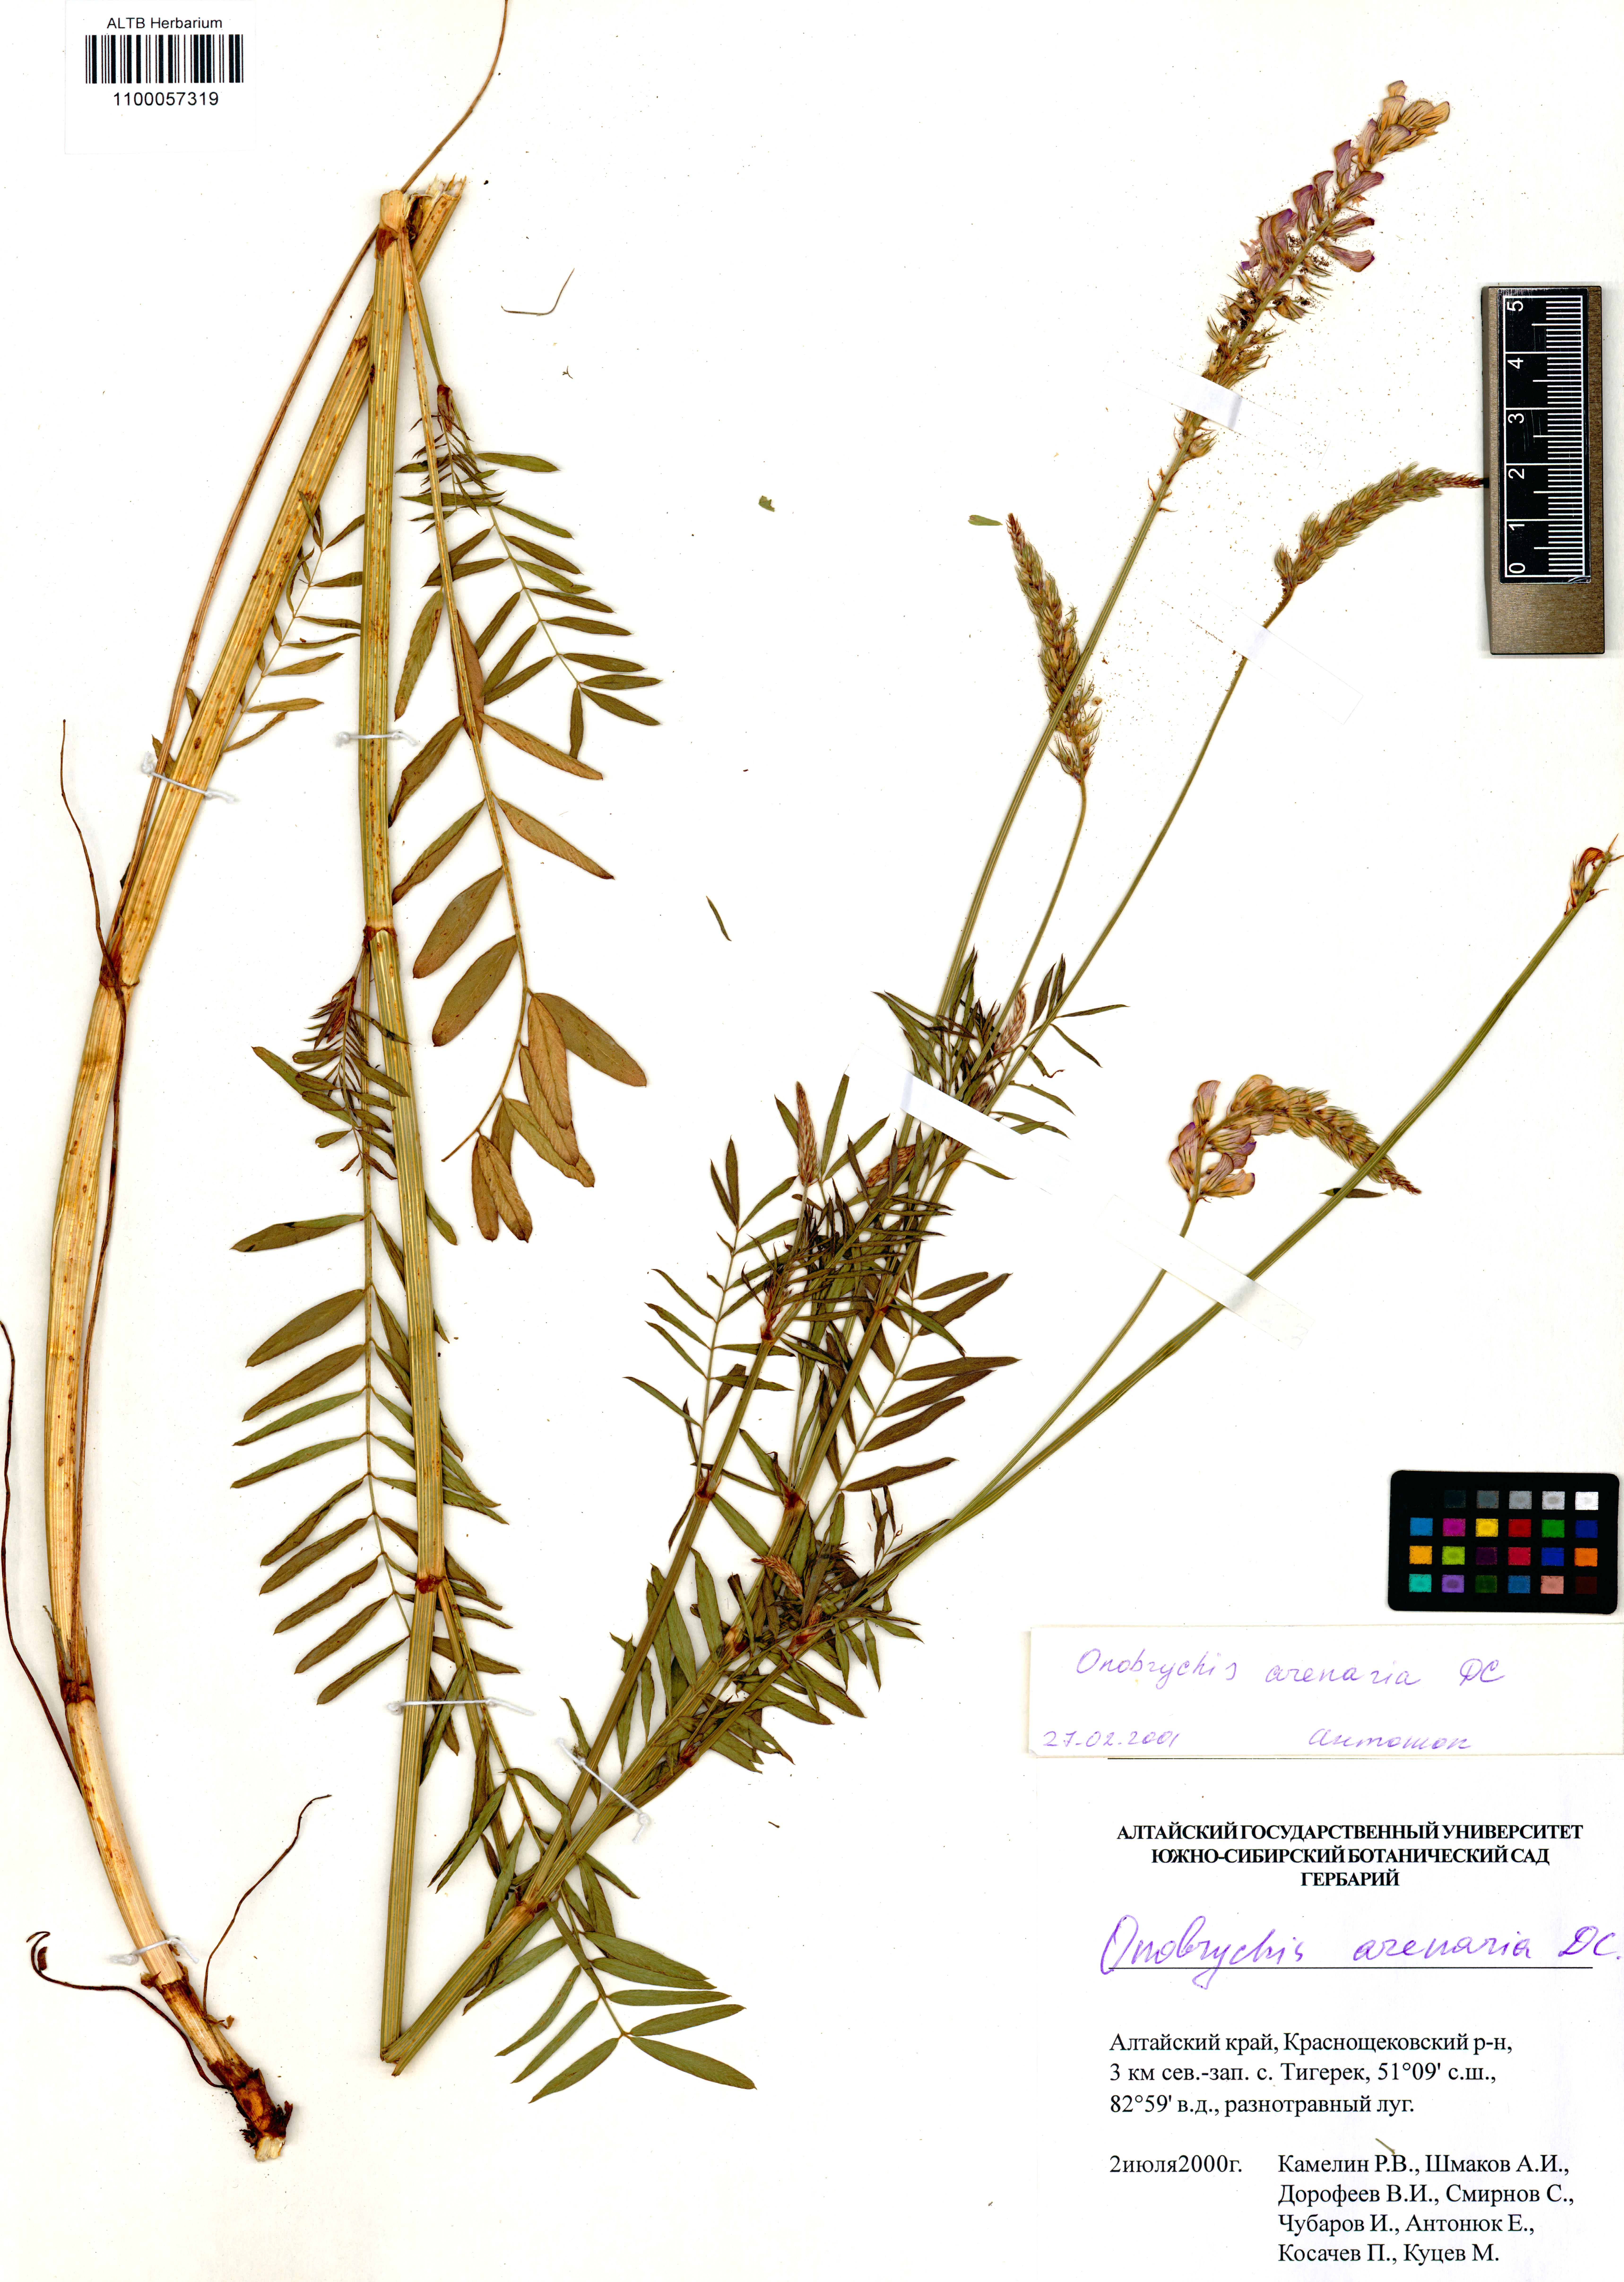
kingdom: Plantae
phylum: Tracheophyta
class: Magnoliopsida
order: Fabales
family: Fabaceae
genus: Onobrychis
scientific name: Onobrychis arenaria
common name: Sand esparcet
